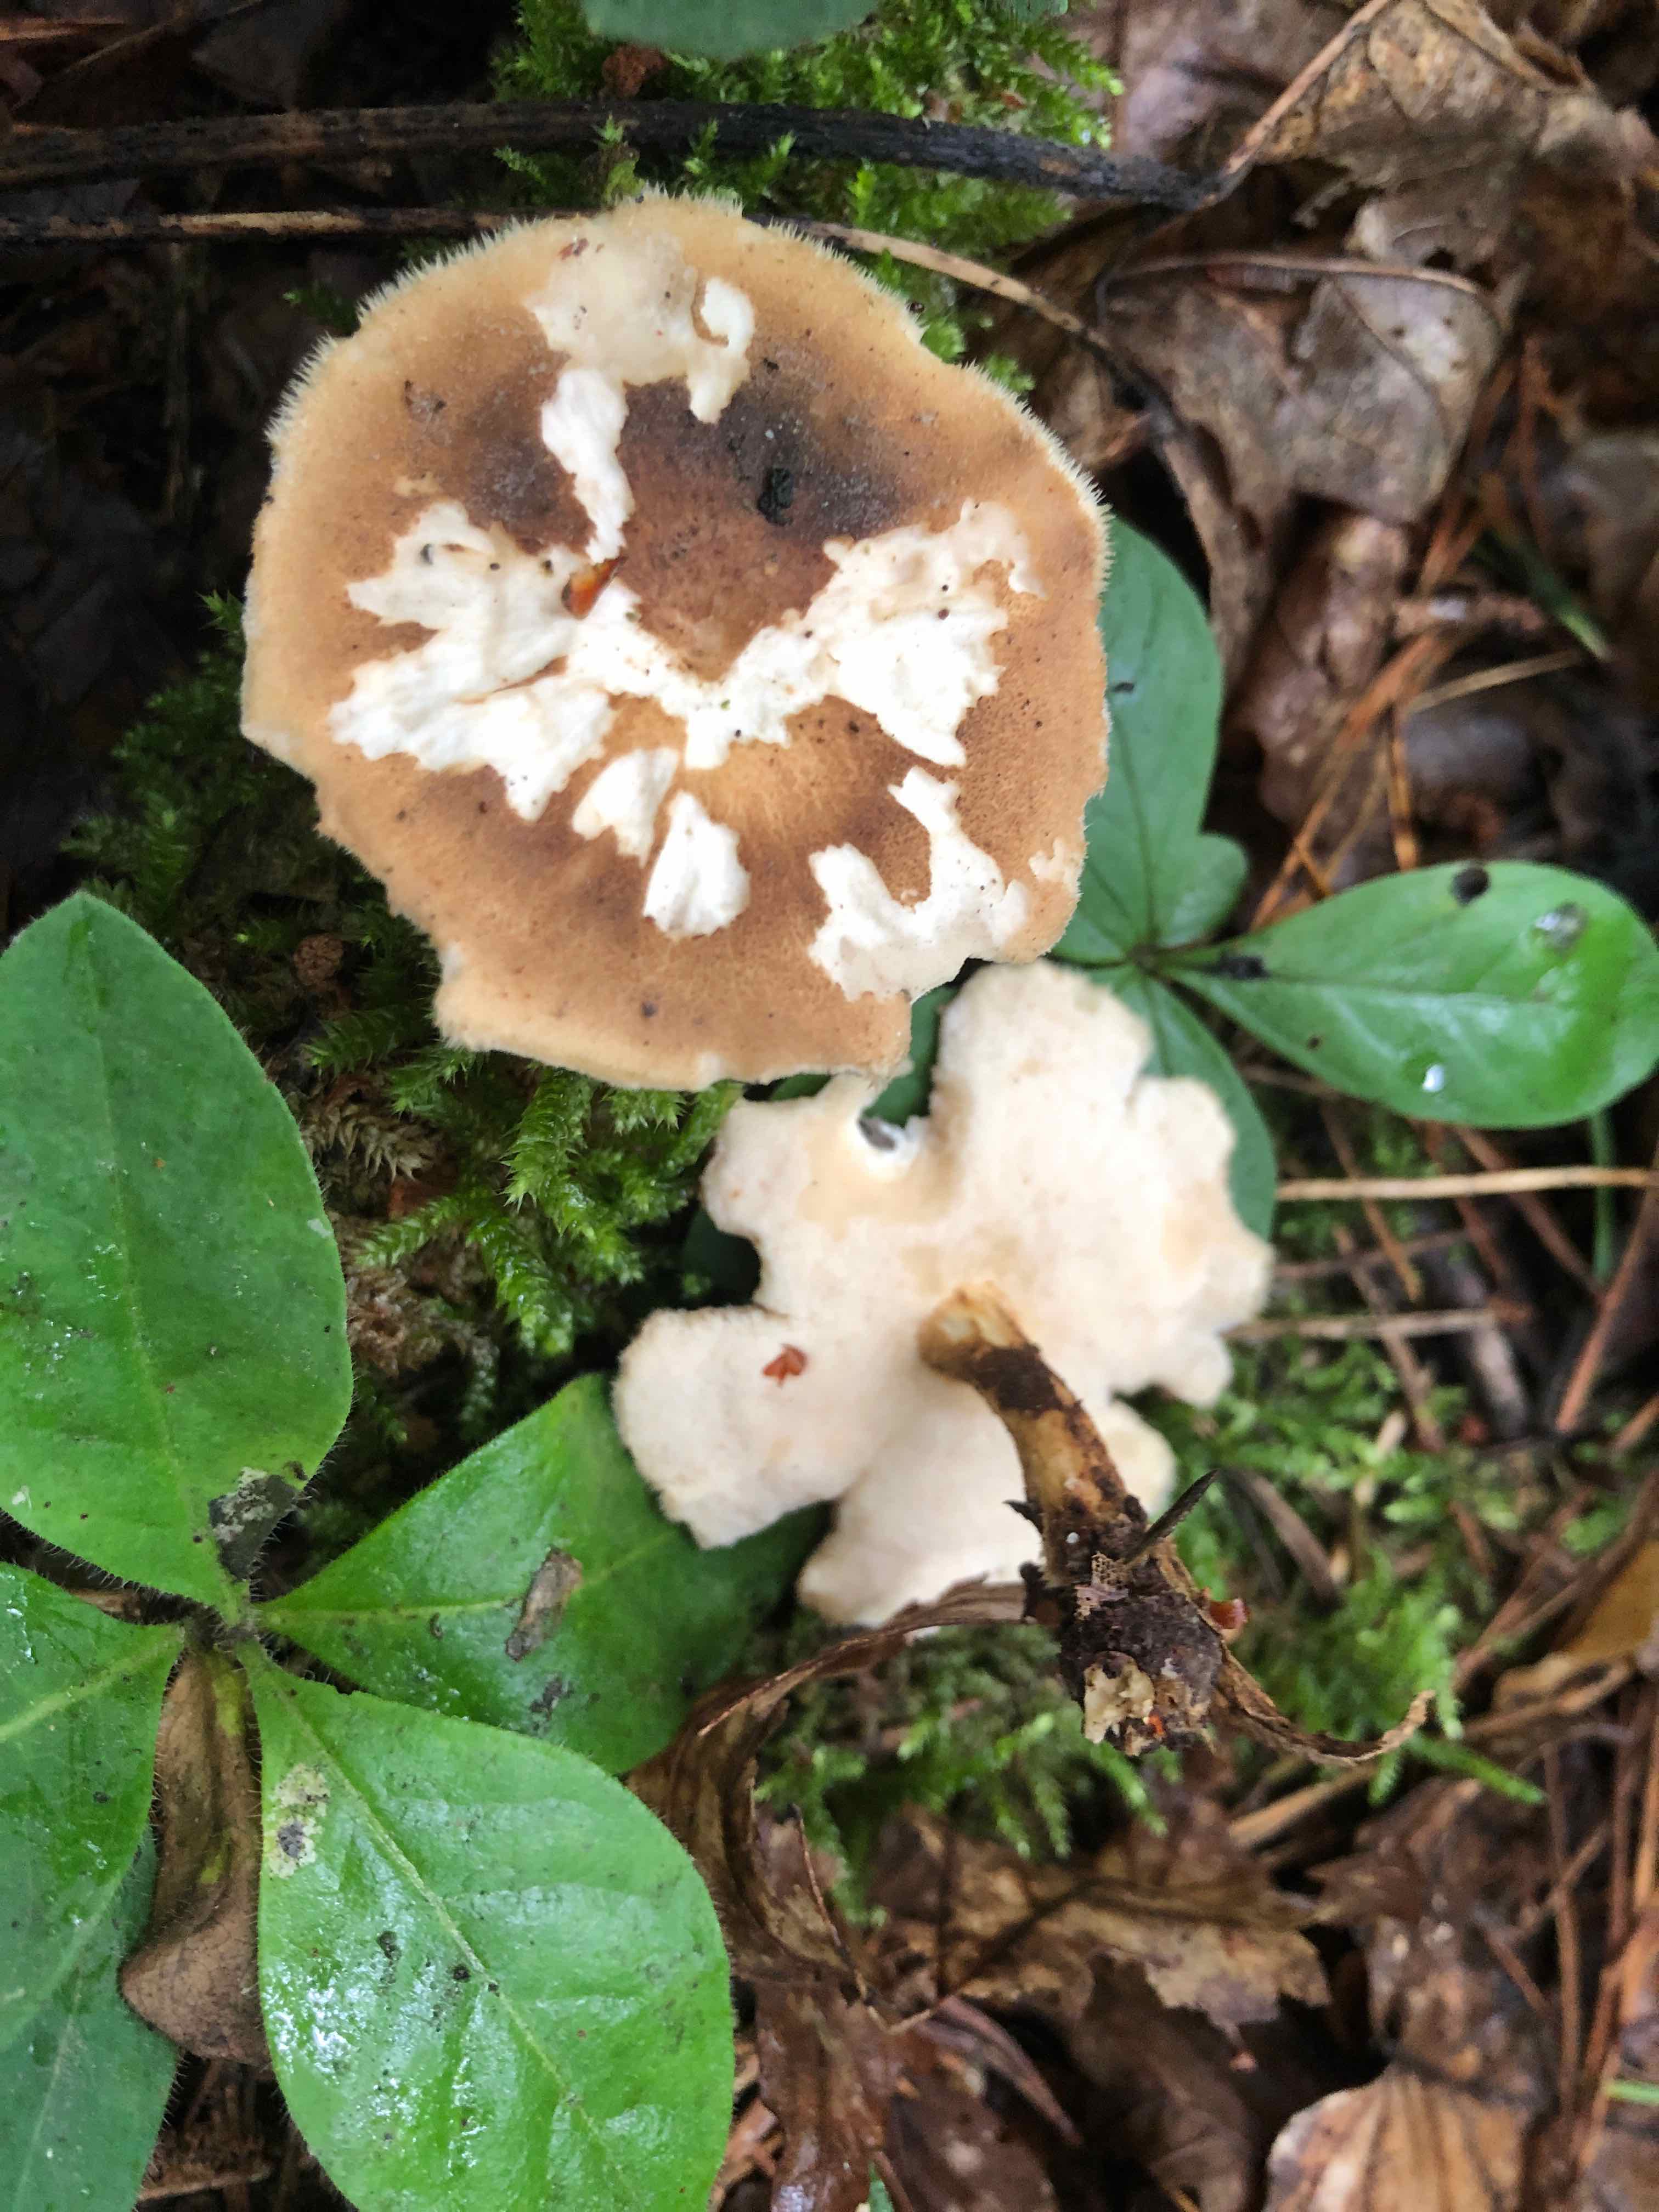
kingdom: Fungi
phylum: Basidiomycota
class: Agaricomycetes
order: Polyporales
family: Polyporaceae
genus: Lentinus
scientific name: Lentinus substrictus
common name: forårs-stilkporesvamp
